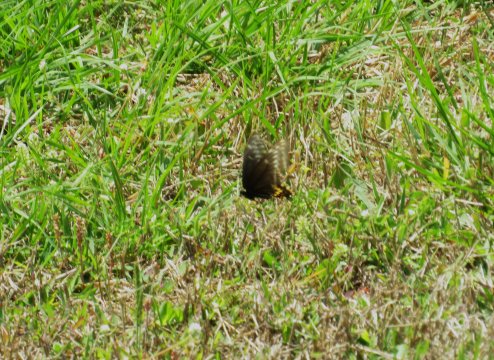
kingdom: Animalia
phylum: Arthropoda
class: Insecta
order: Lepidoptera
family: Papilionidae
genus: Papilio
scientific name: Papilio polyxenes
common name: Black Swallowtail
